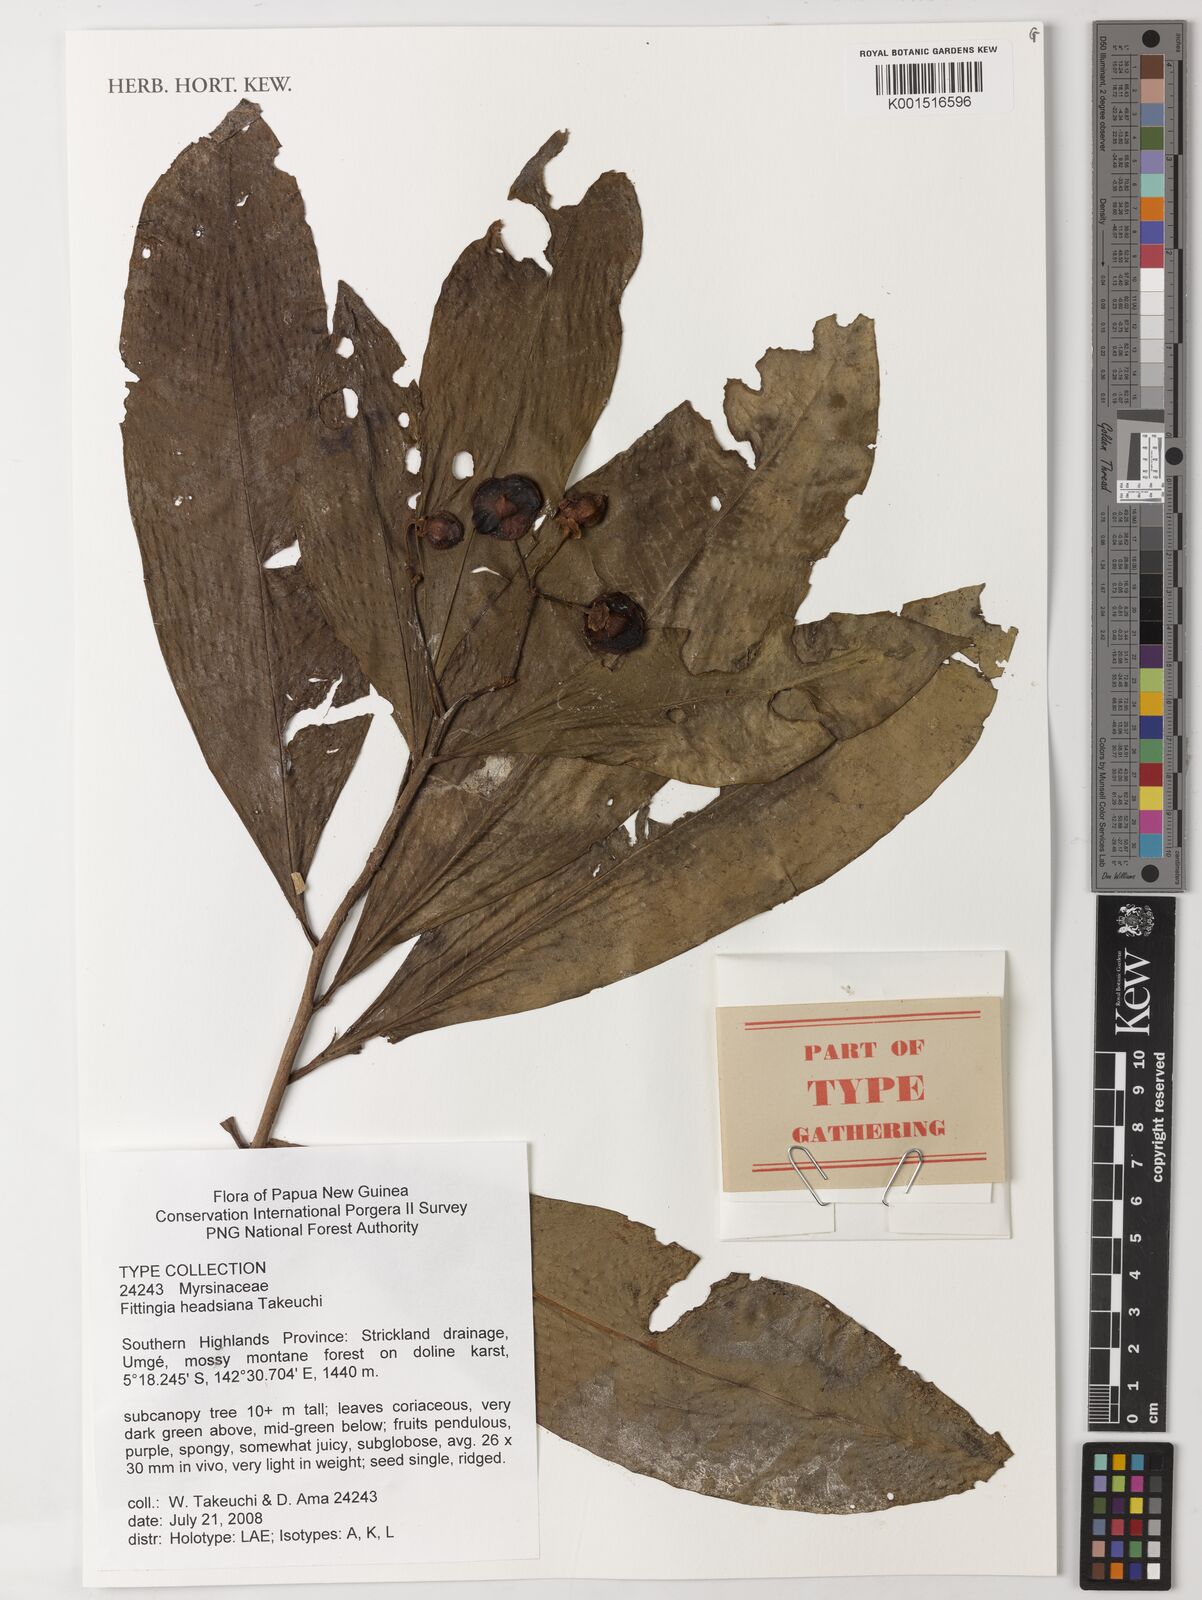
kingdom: Plantae
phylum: Tracheophyta
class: Magnoliopsida
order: Ericales
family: Primulaceae
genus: Fittingia
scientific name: Fittingia headsiana
